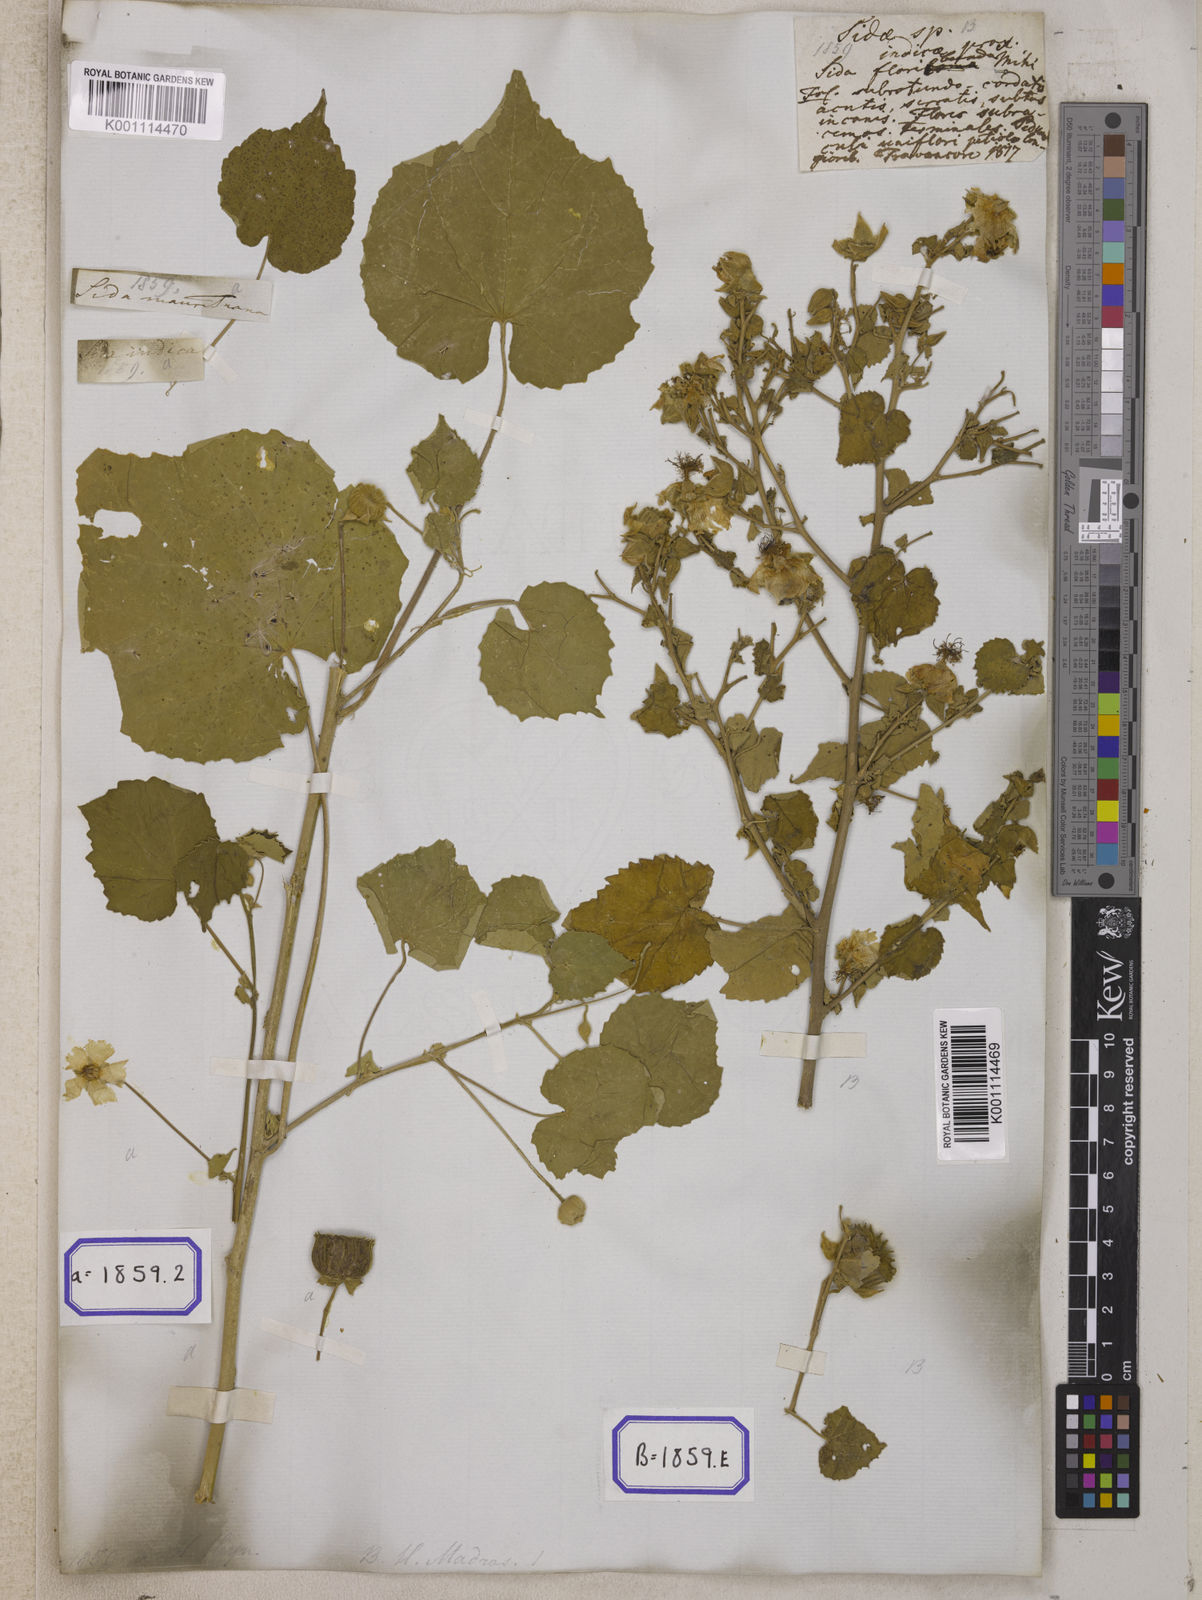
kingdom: Plantae
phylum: Tracheophyta
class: Magnoliopsida
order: Malvales
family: Malvaceae
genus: Abutilon
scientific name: Abutilon indicum
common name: Indian abutilon
